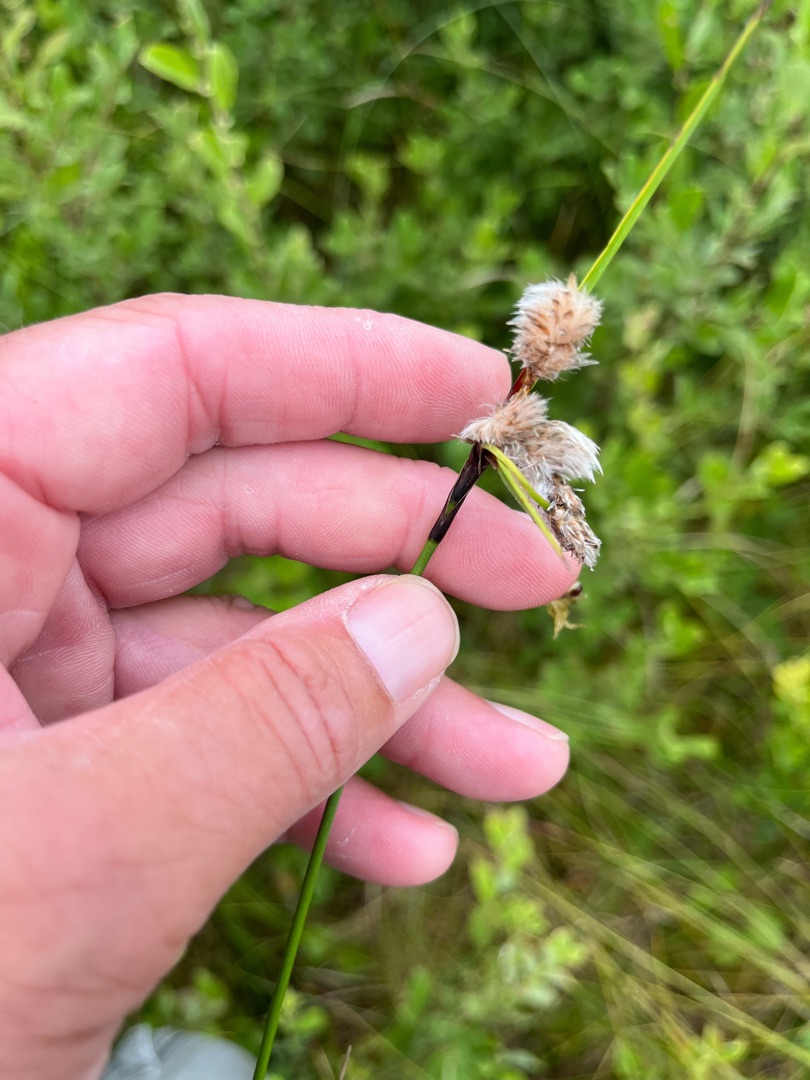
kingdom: Plantae
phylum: Tracheophyta
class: Liliopsida
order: Poales
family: Cyperaceae
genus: Eriophorum
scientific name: Eriophorum angustifolium
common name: Smalbladet kæruld
